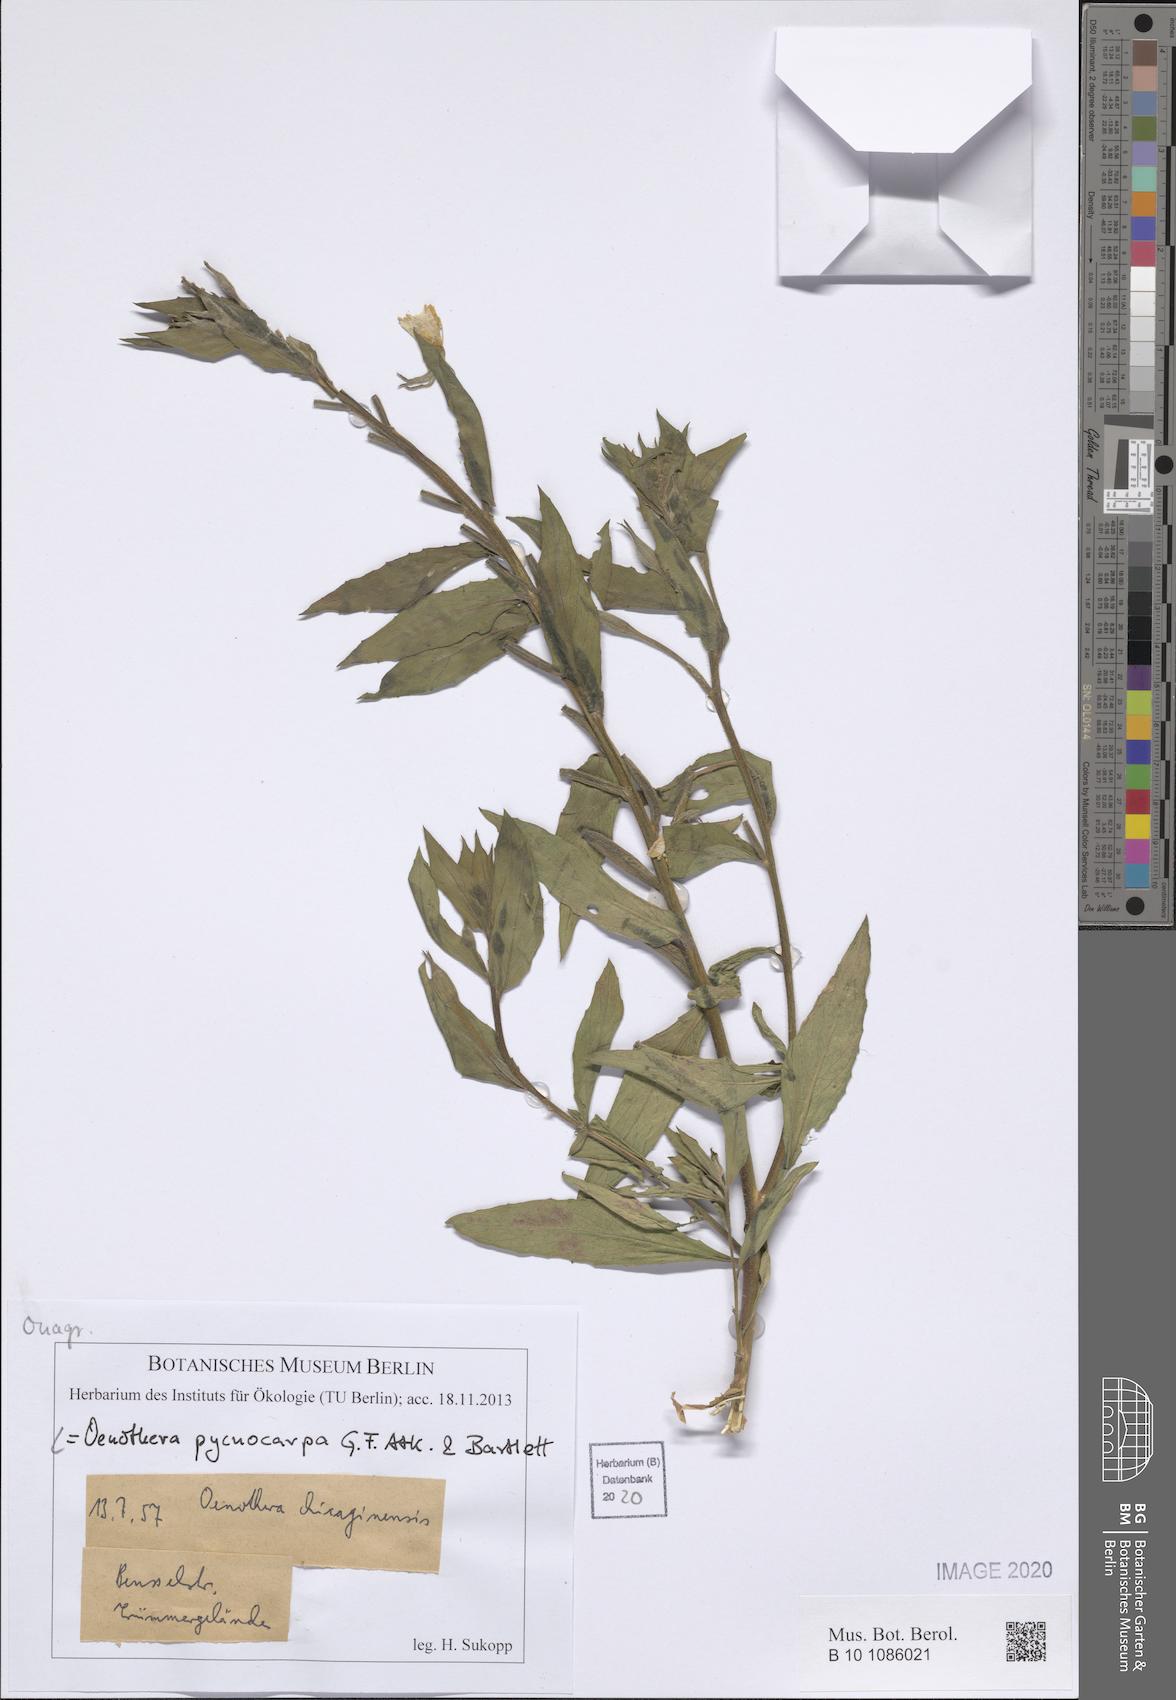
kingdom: Plantae
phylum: Tracheophyta
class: Magnoliopsida
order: Myrtales
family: Onagraceae
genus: Oenothera
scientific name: Oenothera biennis
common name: Common evening-primrose
